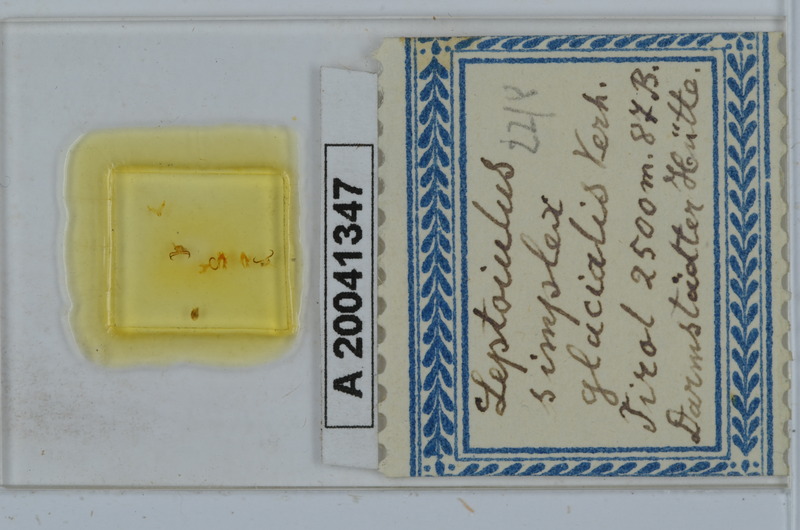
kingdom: Animalia
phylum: Arthropoda
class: Diplopoda
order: Julida
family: Julidae
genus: Leptoiulus
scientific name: Leptoiulus simplex
